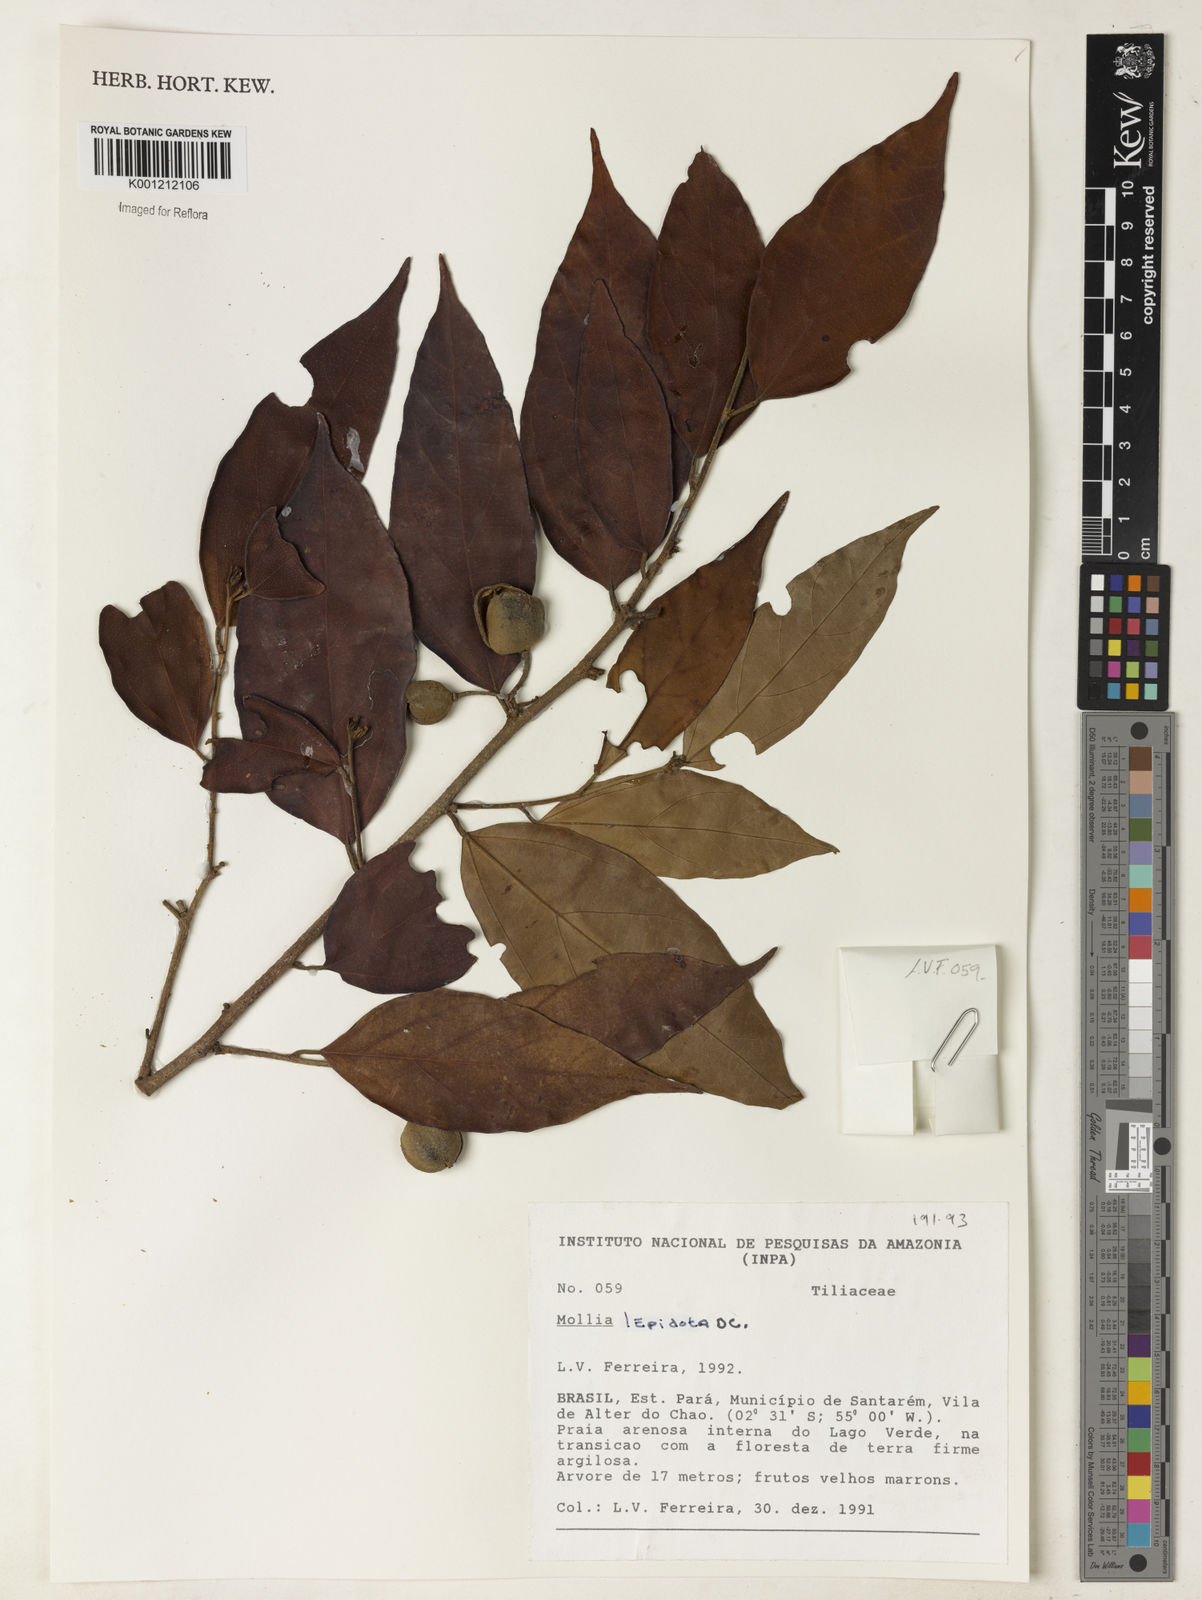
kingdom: Plantae
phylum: Tracheophyta
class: Magnoliopsida
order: Malvales
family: Malvaceae
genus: Mollia
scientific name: Mollia lepidota
